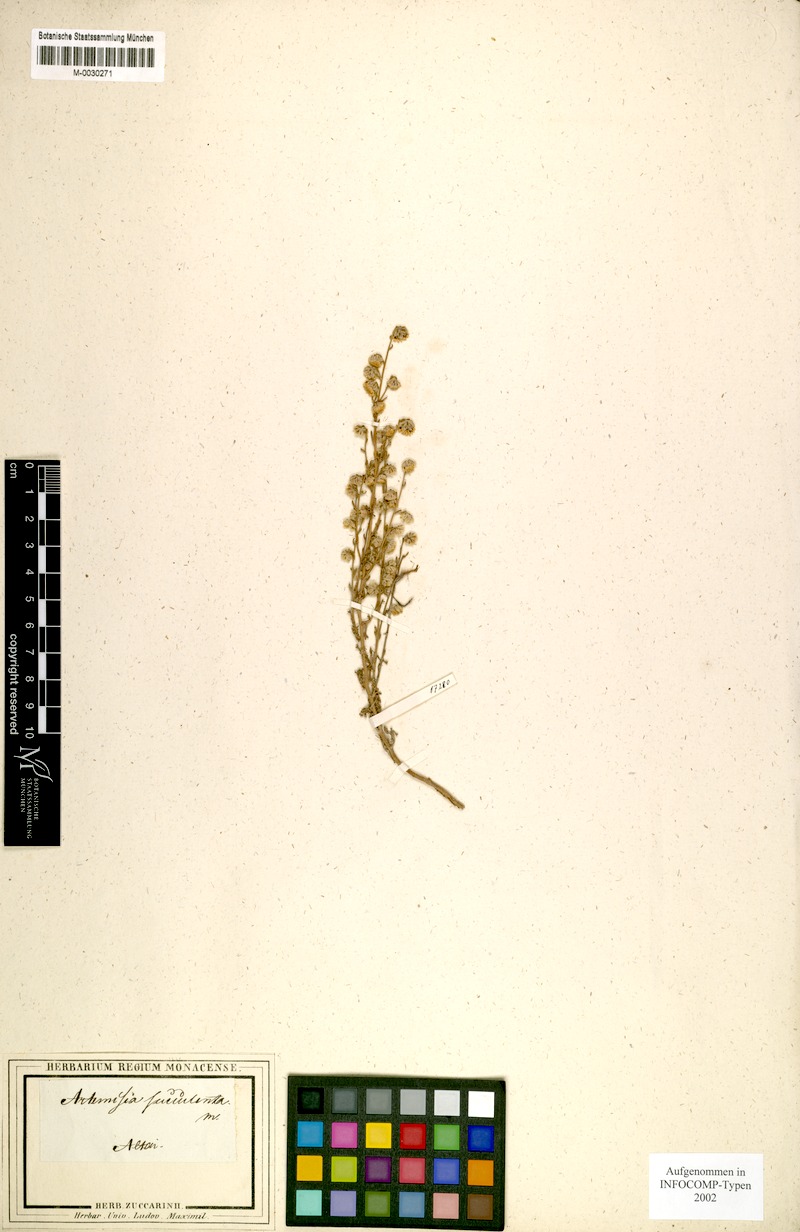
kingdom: Plantae
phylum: Tracheophyta
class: Magnoliopsida
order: Asterales
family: Asteraceae
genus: Artemisia
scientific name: Artemisia succulenta
